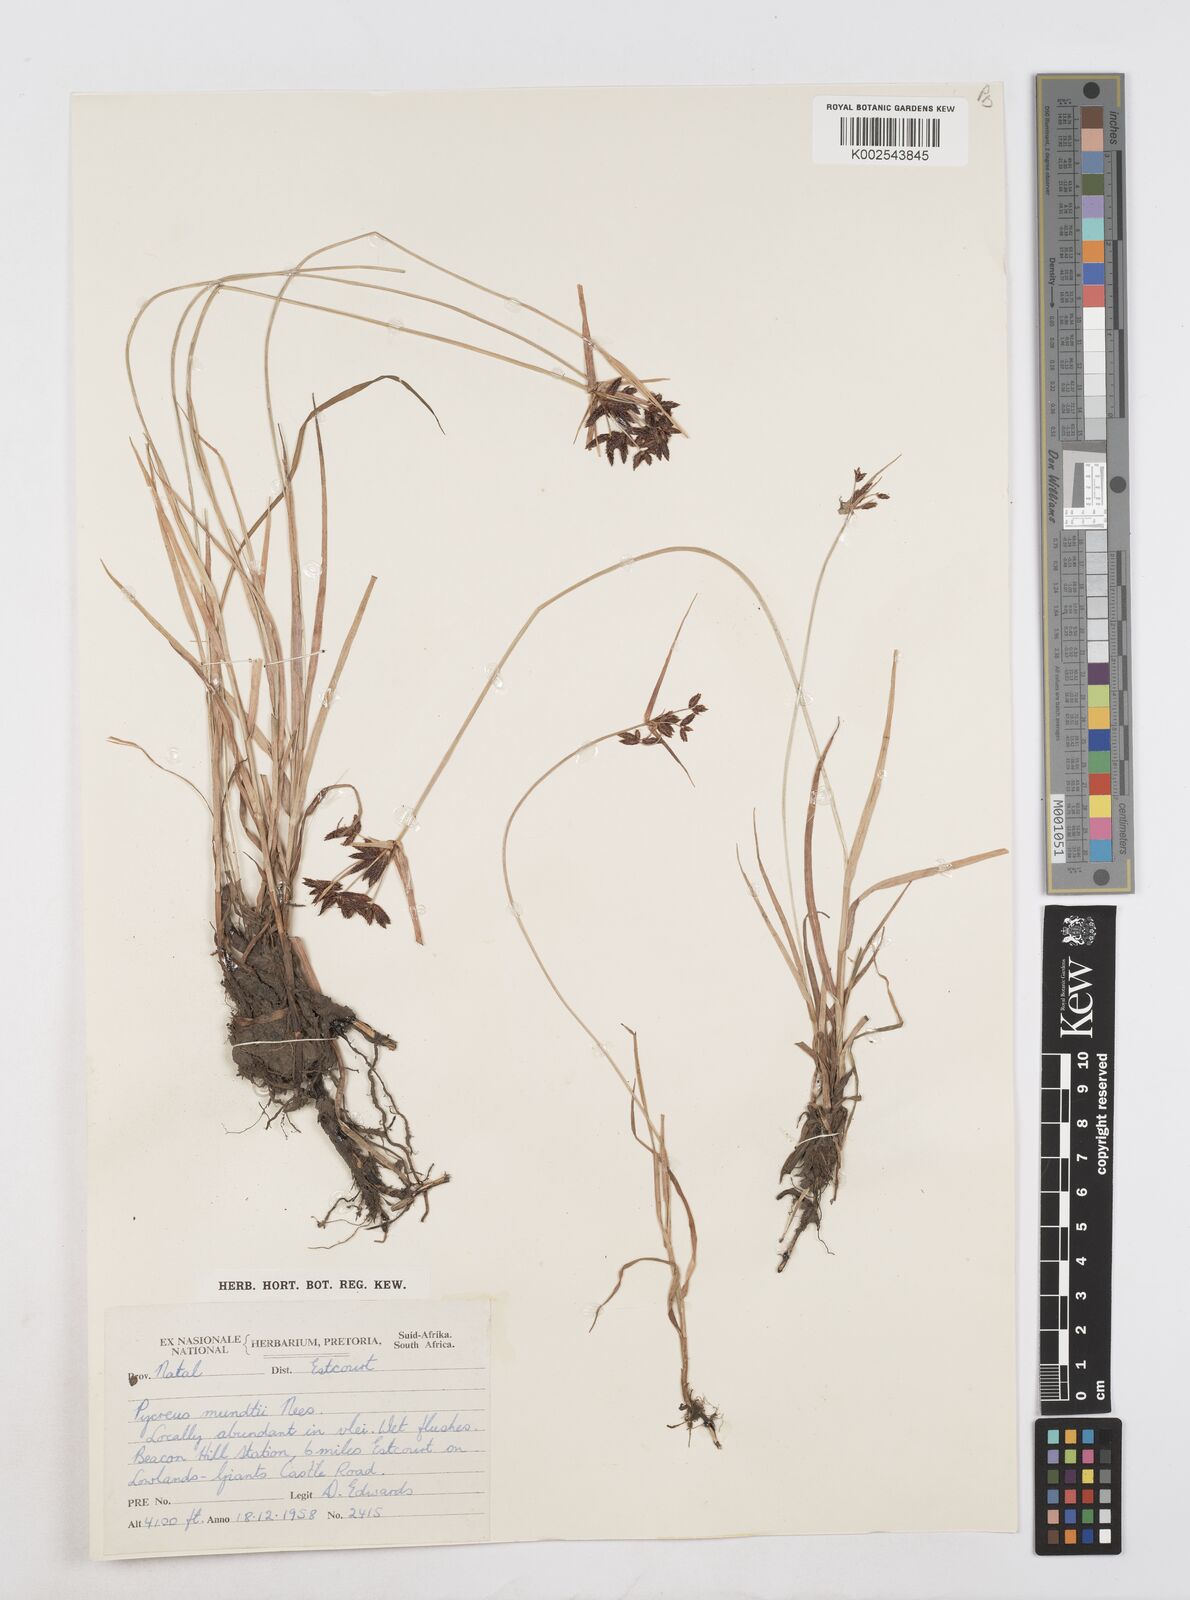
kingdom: Plantae
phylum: Tracheophyta
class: Liliopsida
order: Poales
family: Cyperaceae
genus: Cyperus
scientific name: Cyperus mundii
